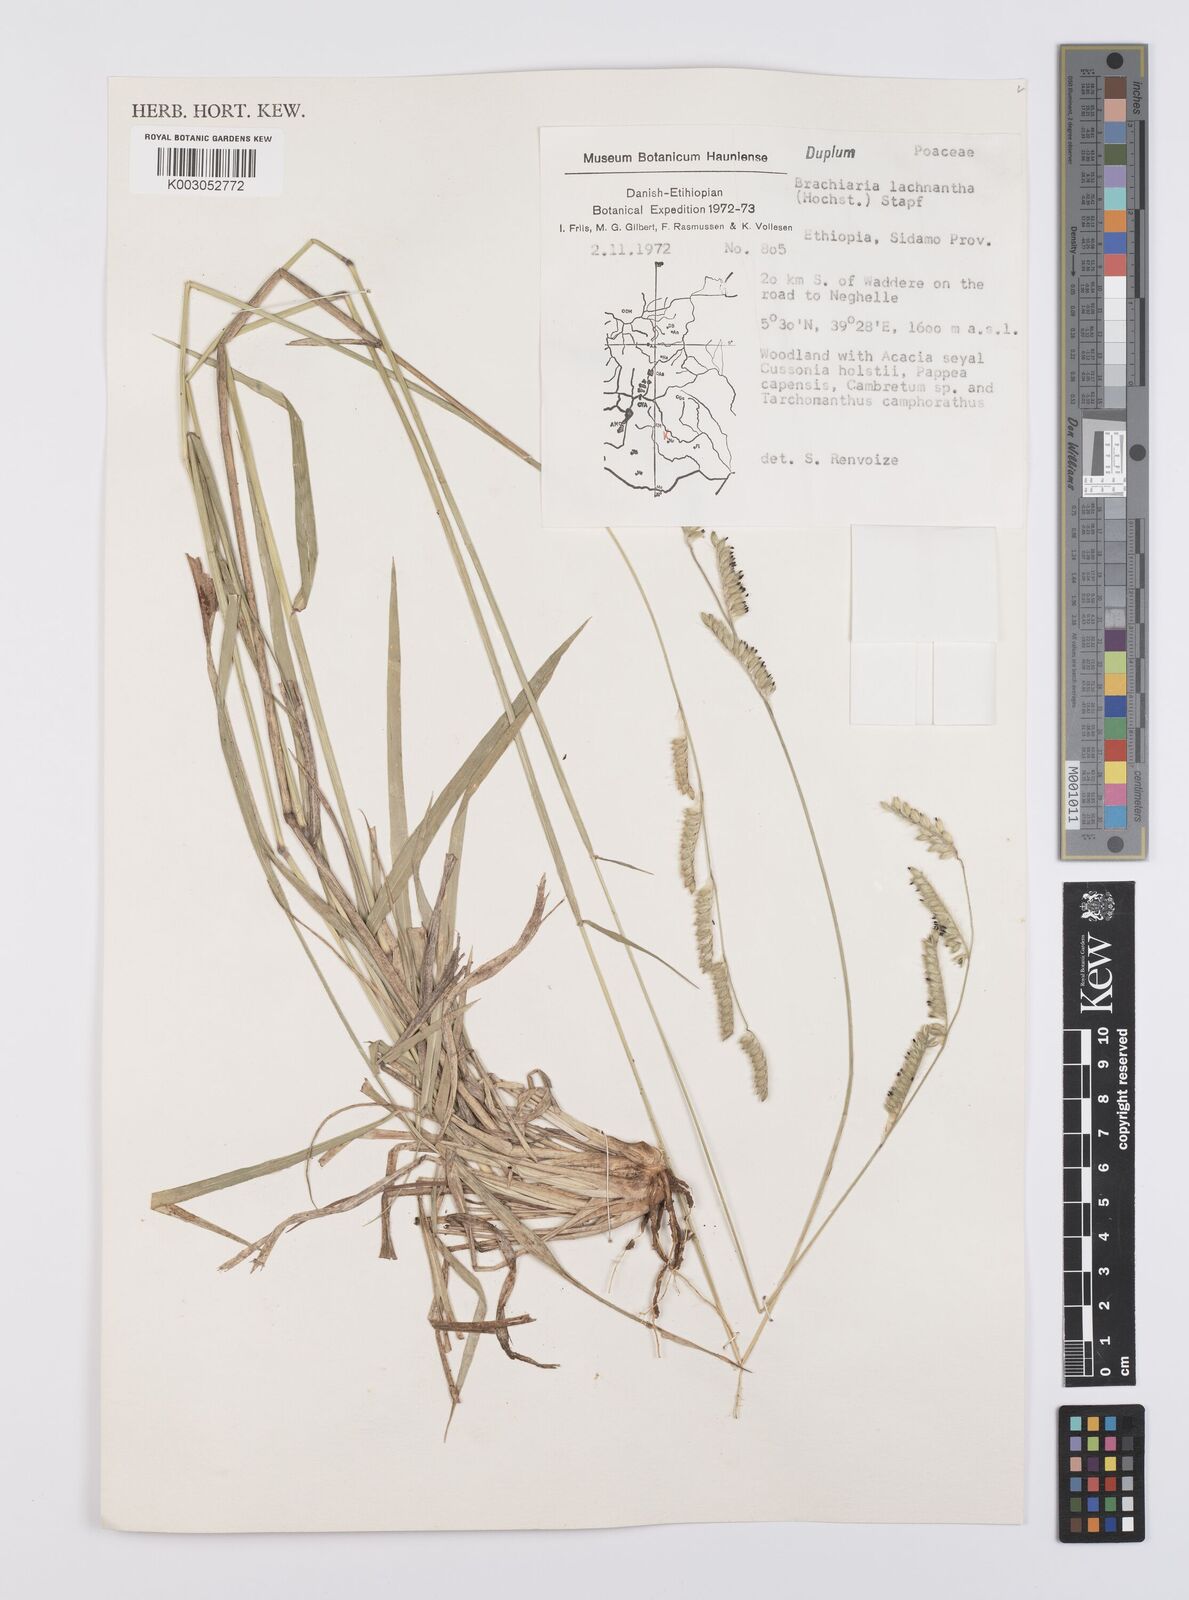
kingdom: Plantae
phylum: Tracheophyta
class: Liliopsida
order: Poales
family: Poaceae
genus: Urochloa
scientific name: Urochloa lachnantha
